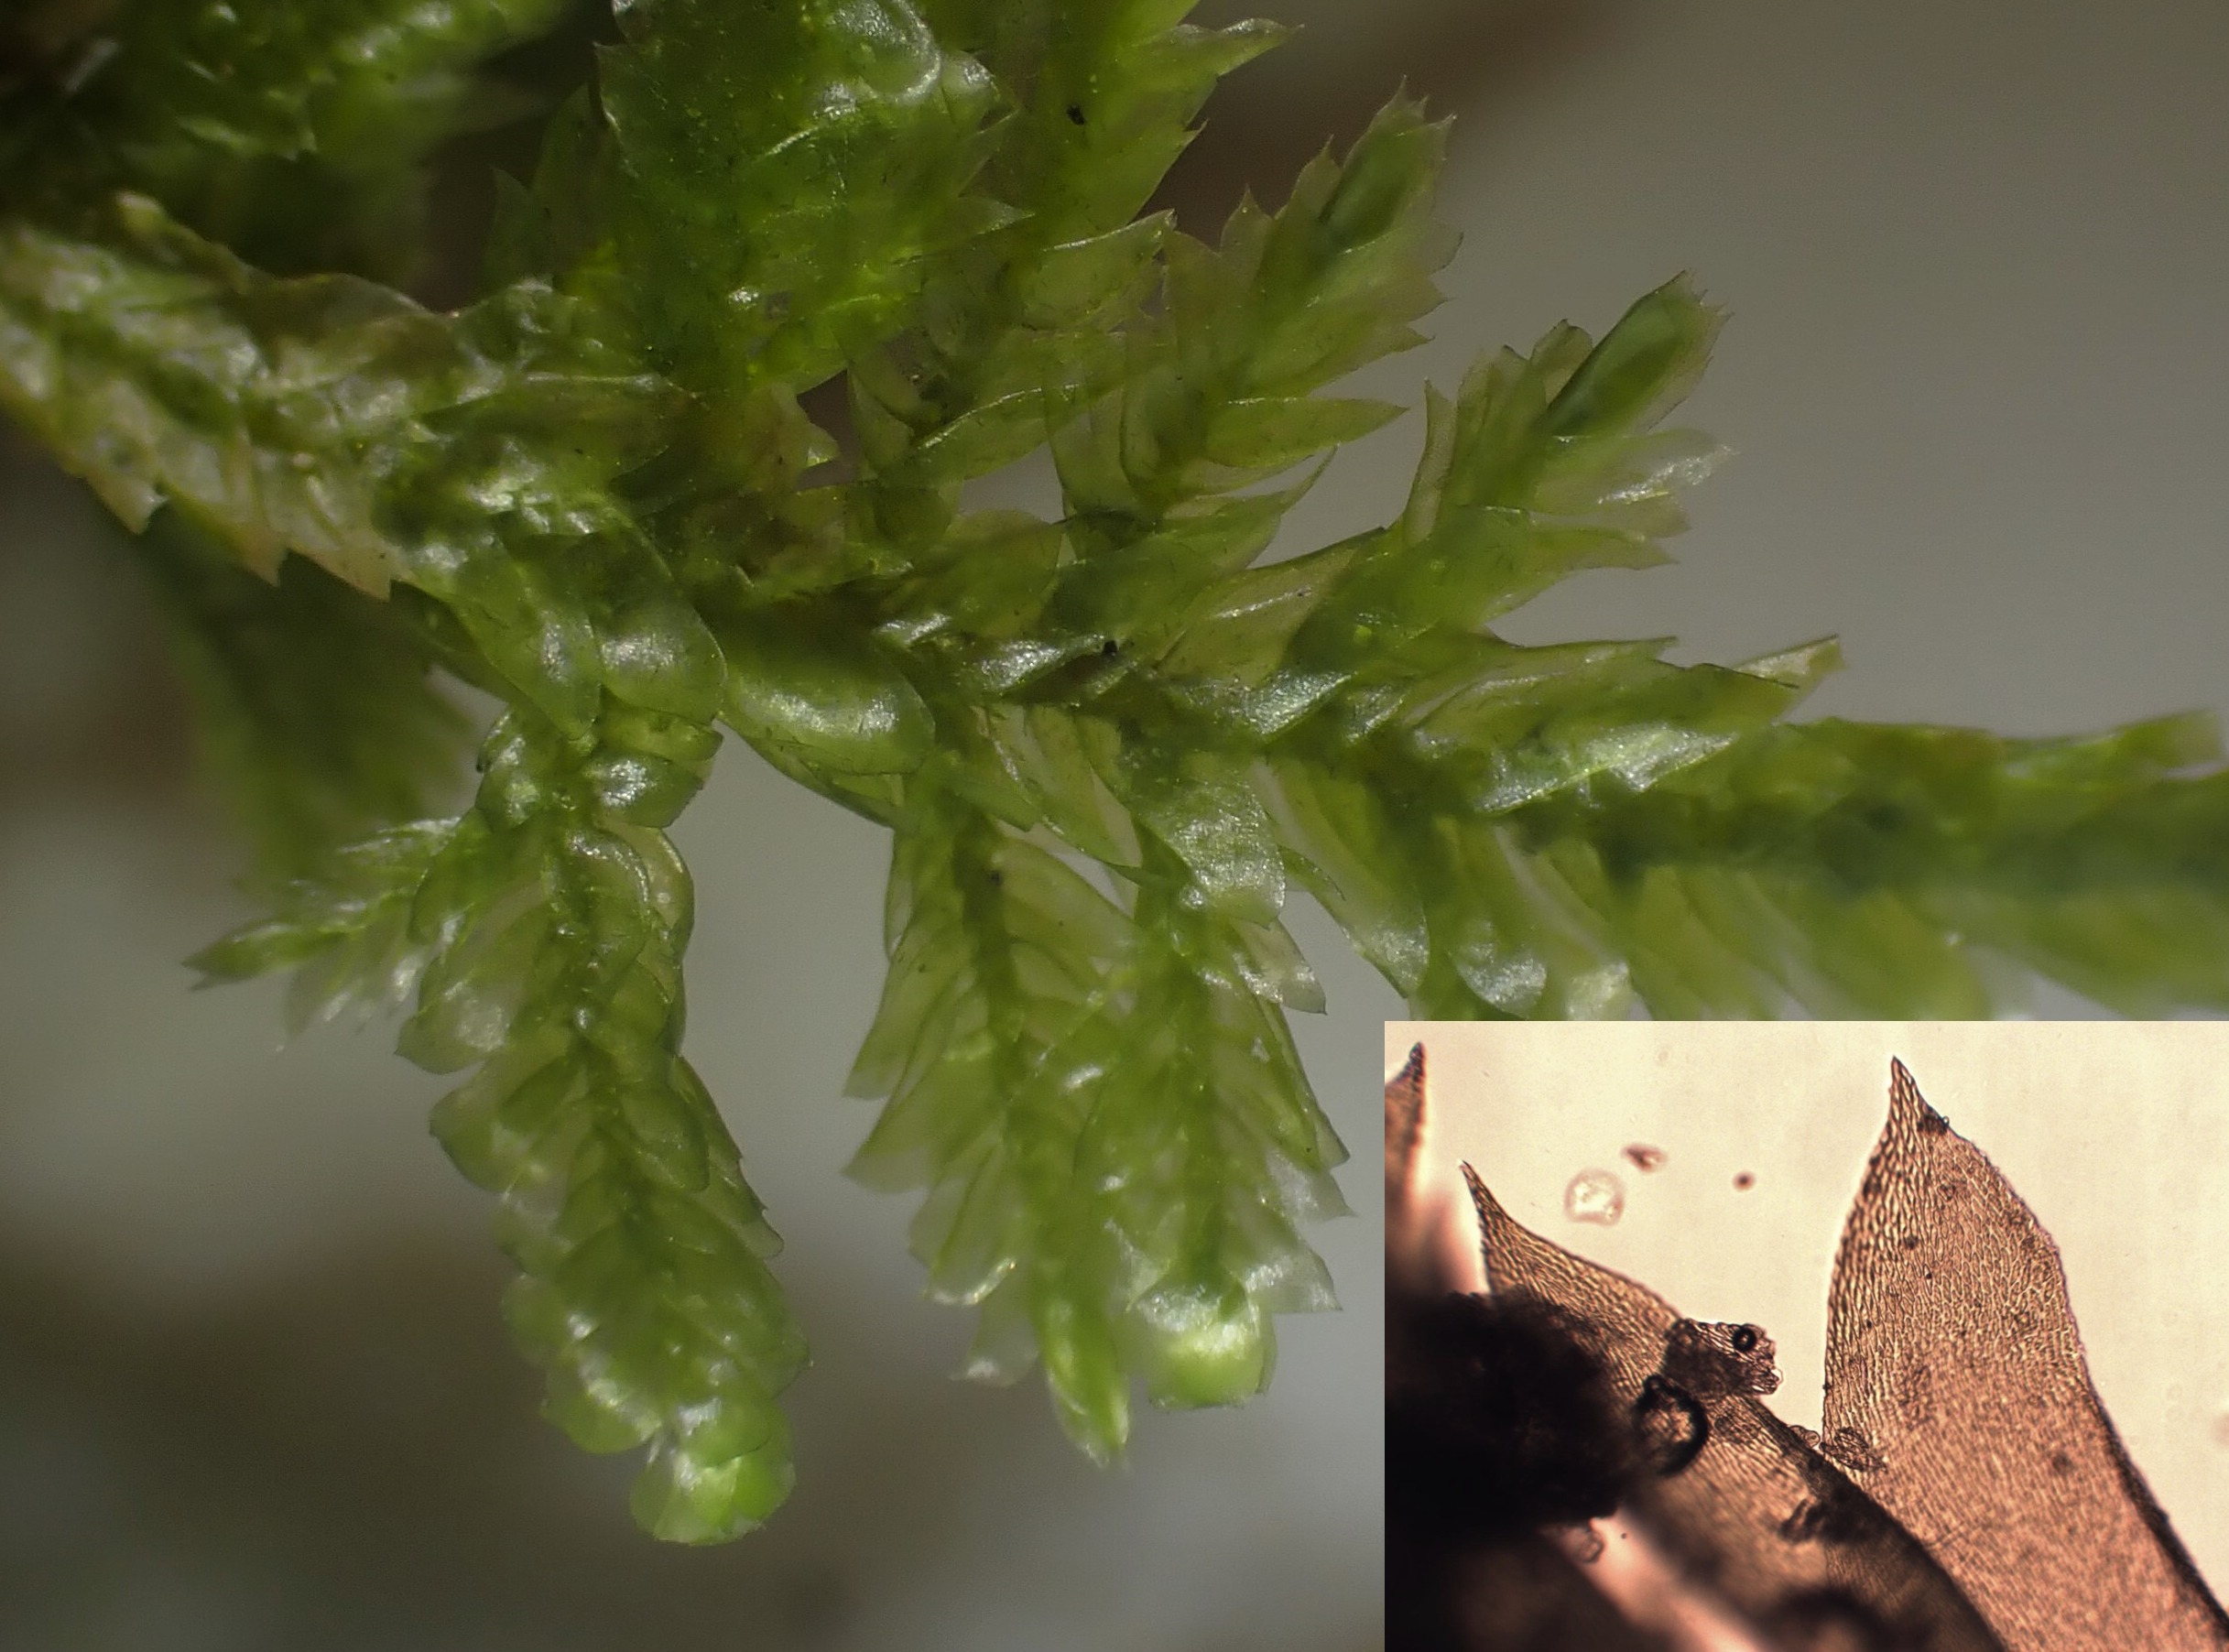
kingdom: Plantae
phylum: Bryophyta
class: Bryopsida
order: Hypnales
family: Neckeraceae
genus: Alleniella
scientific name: Alleniella complanata
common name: Almindelig fladmos
